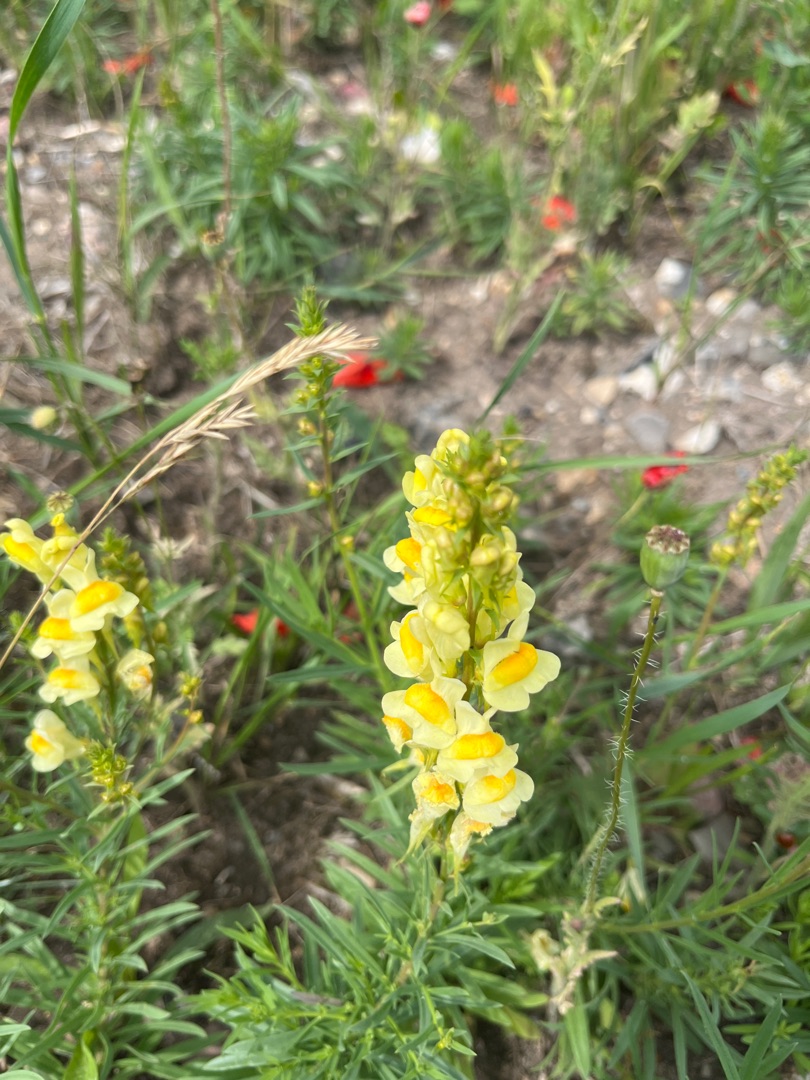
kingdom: Plantae
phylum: Tracheophyta
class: Magnoliopsida
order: Lamiales
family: Plantaginaceae
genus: Linaria
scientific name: Linaria vulgaris
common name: Almindelig torskemund
